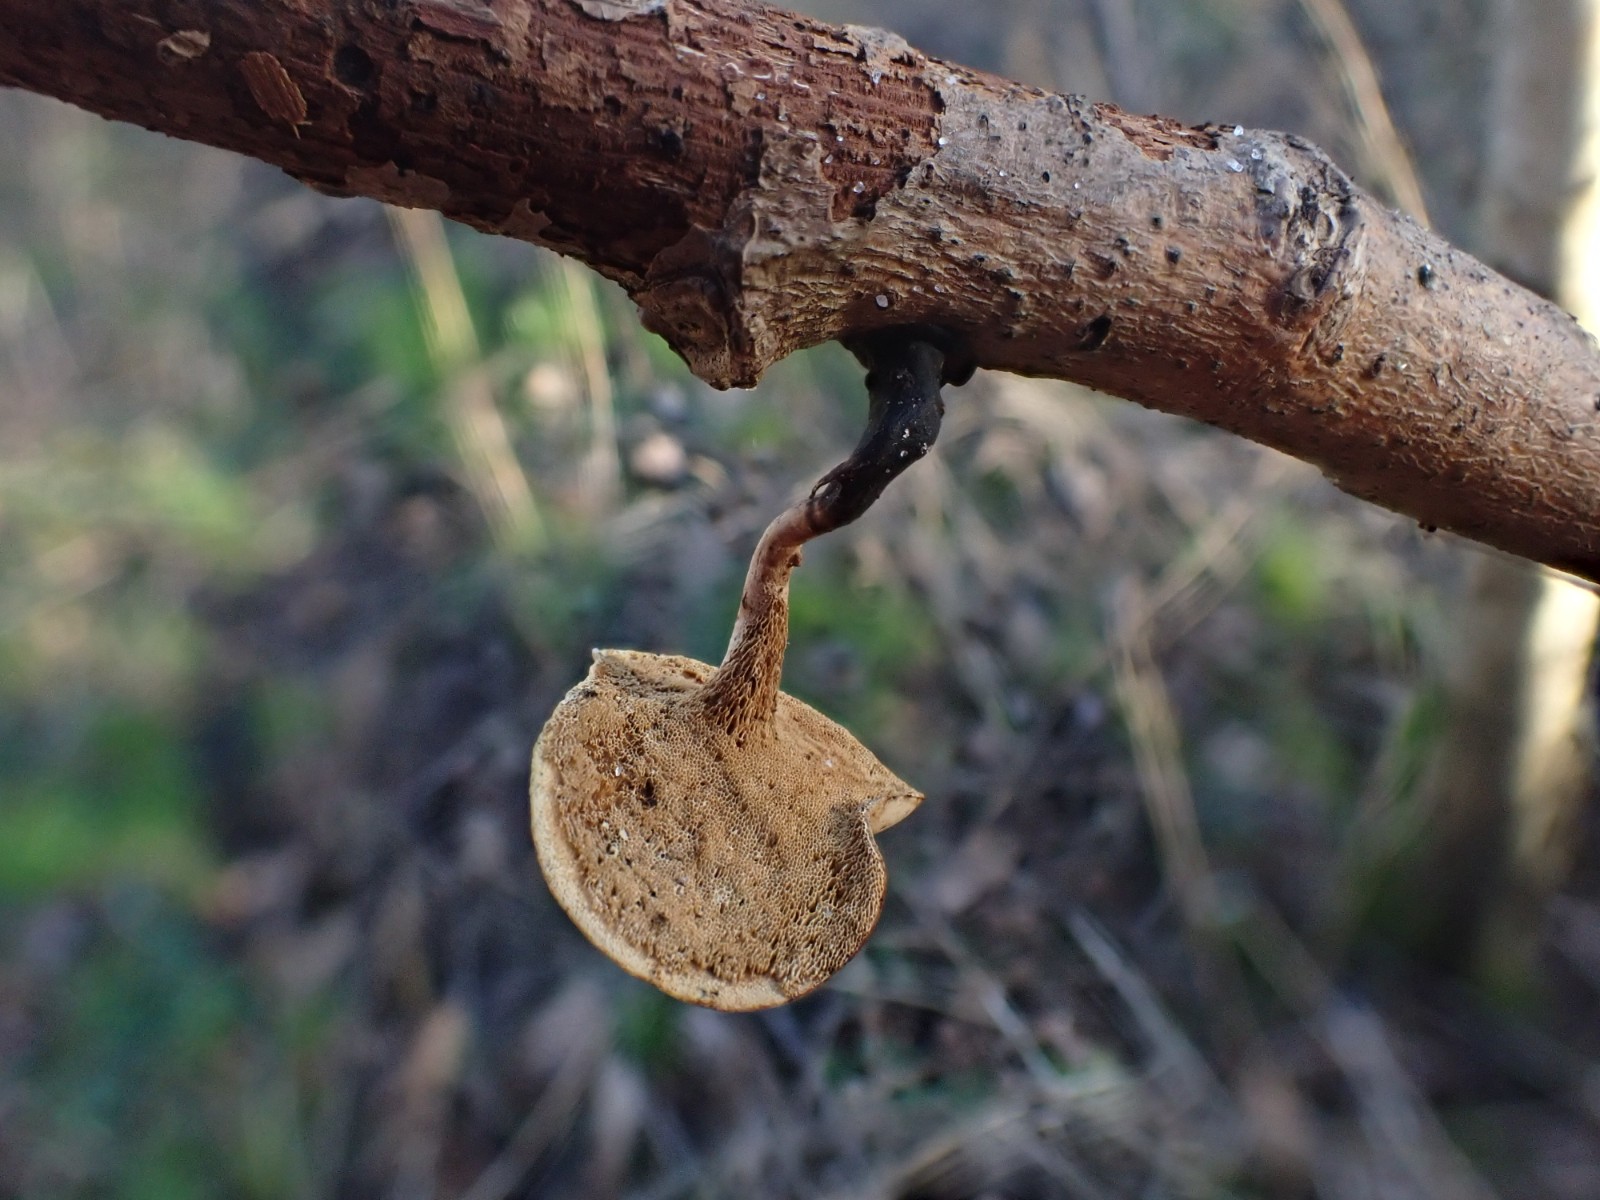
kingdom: Fungi
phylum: Basidiomycota
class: Agaricomycetes
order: Polyporales
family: Polyporaceae
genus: Cerioporus
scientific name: Cerioporus varius
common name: foranderlig stilkporesvamp
